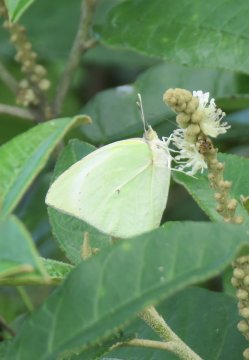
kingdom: Animalia
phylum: Arthropoda
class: Insecta
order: Lepidoptera
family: Pieridae
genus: Kricogonia
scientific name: Kricogonia lyside
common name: Lyside Sulphur
